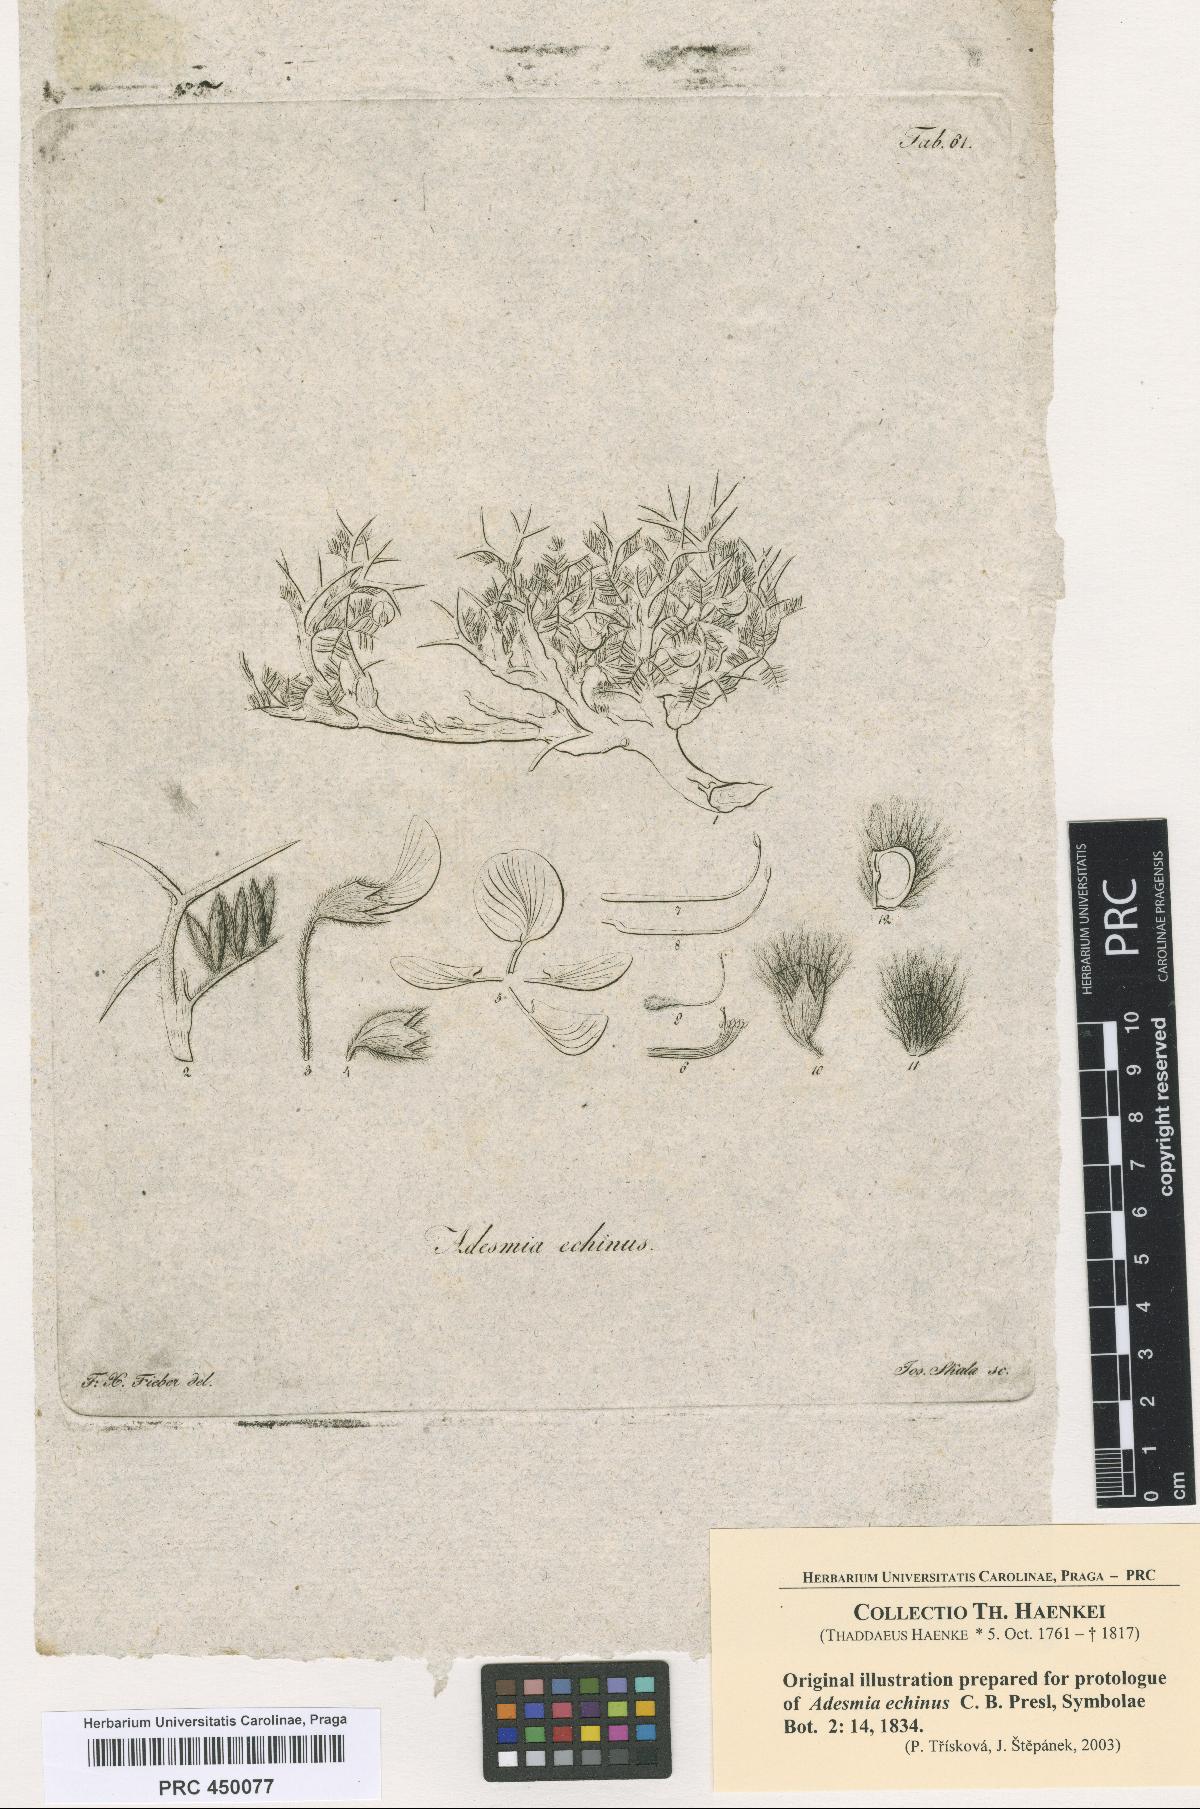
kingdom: Plantae
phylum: Tracheophyta
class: Magnoliopsida
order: Fabales
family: Fabaceae
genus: Adesmia
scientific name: Adesmia echinus
